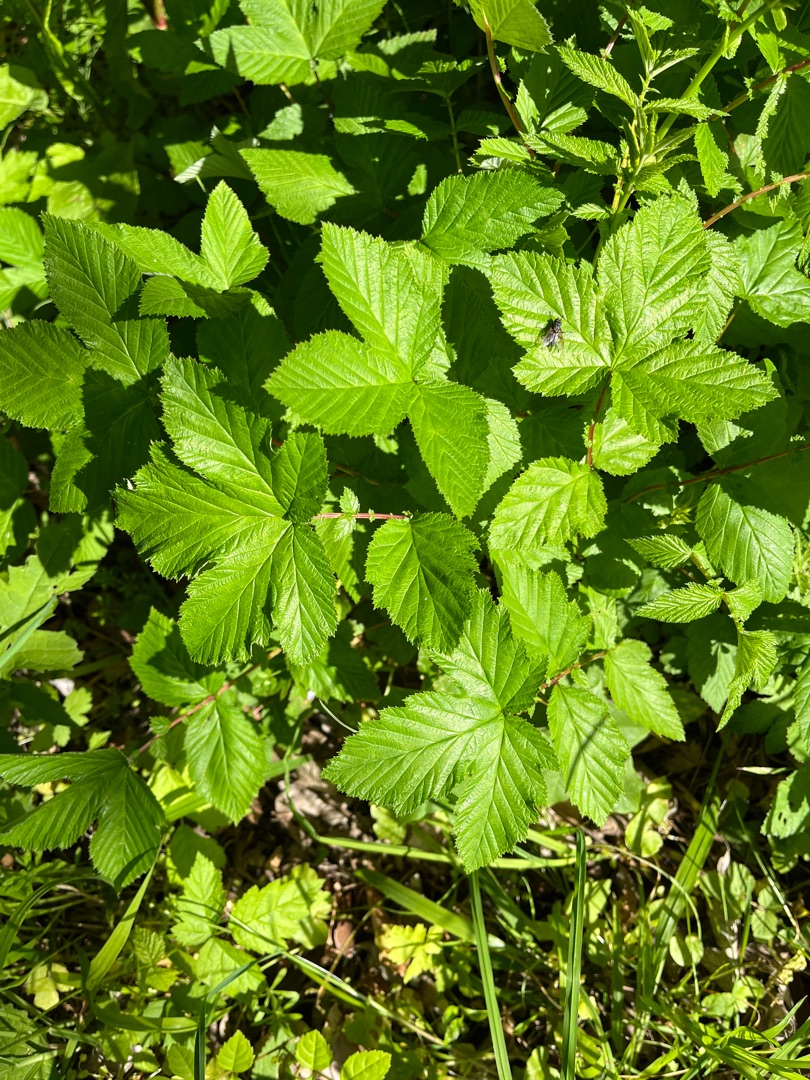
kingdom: Plantae
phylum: Tracheophyta
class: Magnoliopsida
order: Rosales
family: Rosaceae
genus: Filipendula
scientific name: Filipendula ulmaria
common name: Almindelig mjødurt
